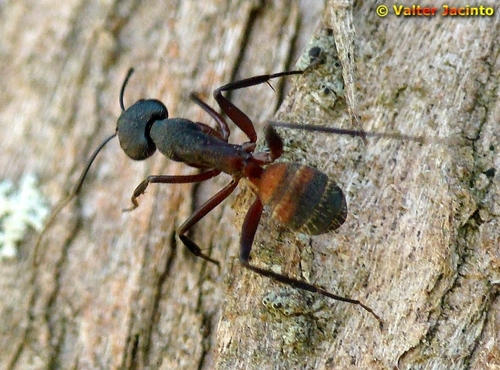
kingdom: Animalia
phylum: Arthropoda
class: Insecta
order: Hymenoptera
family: Formicidae
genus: Camponotus
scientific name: Camponotus cruentatus
